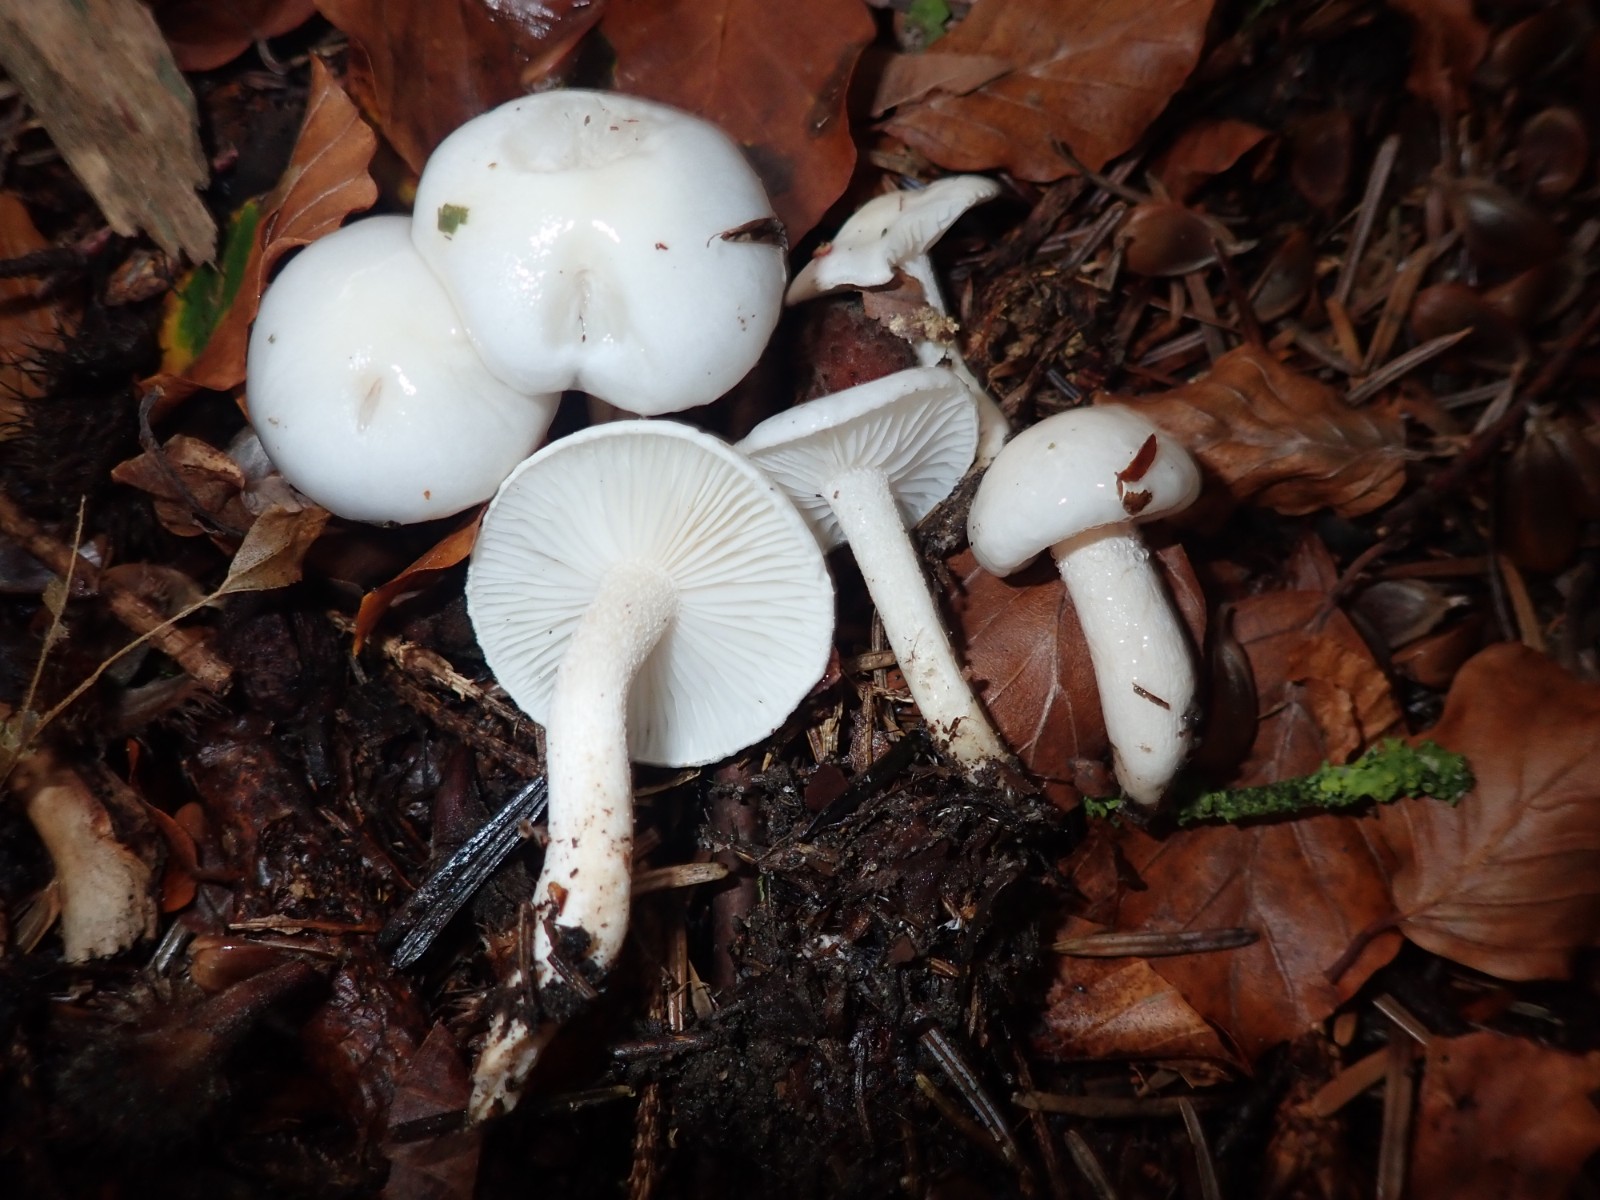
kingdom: Fungi
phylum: Basidiomycota
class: Agaricomycetes
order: Agaricales
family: Hygrophoraceae
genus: Hygrophorus
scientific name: Hygrophorus eburneus
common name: elfenbens-sneglehat
